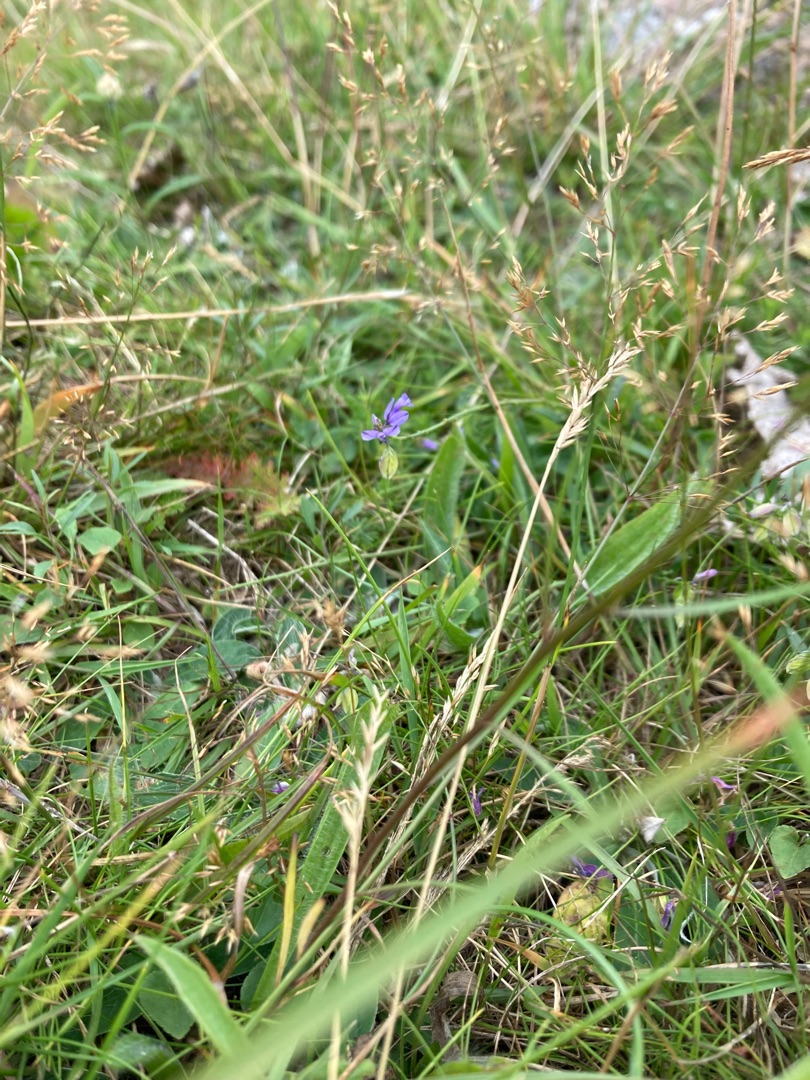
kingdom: Plantae
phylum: Tracheophyta
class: Magnoliopsida
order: Fabales
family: Polygalaceae
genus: Polygala
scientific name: Polygala vulgaris
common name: Almindelig mælkeurt
